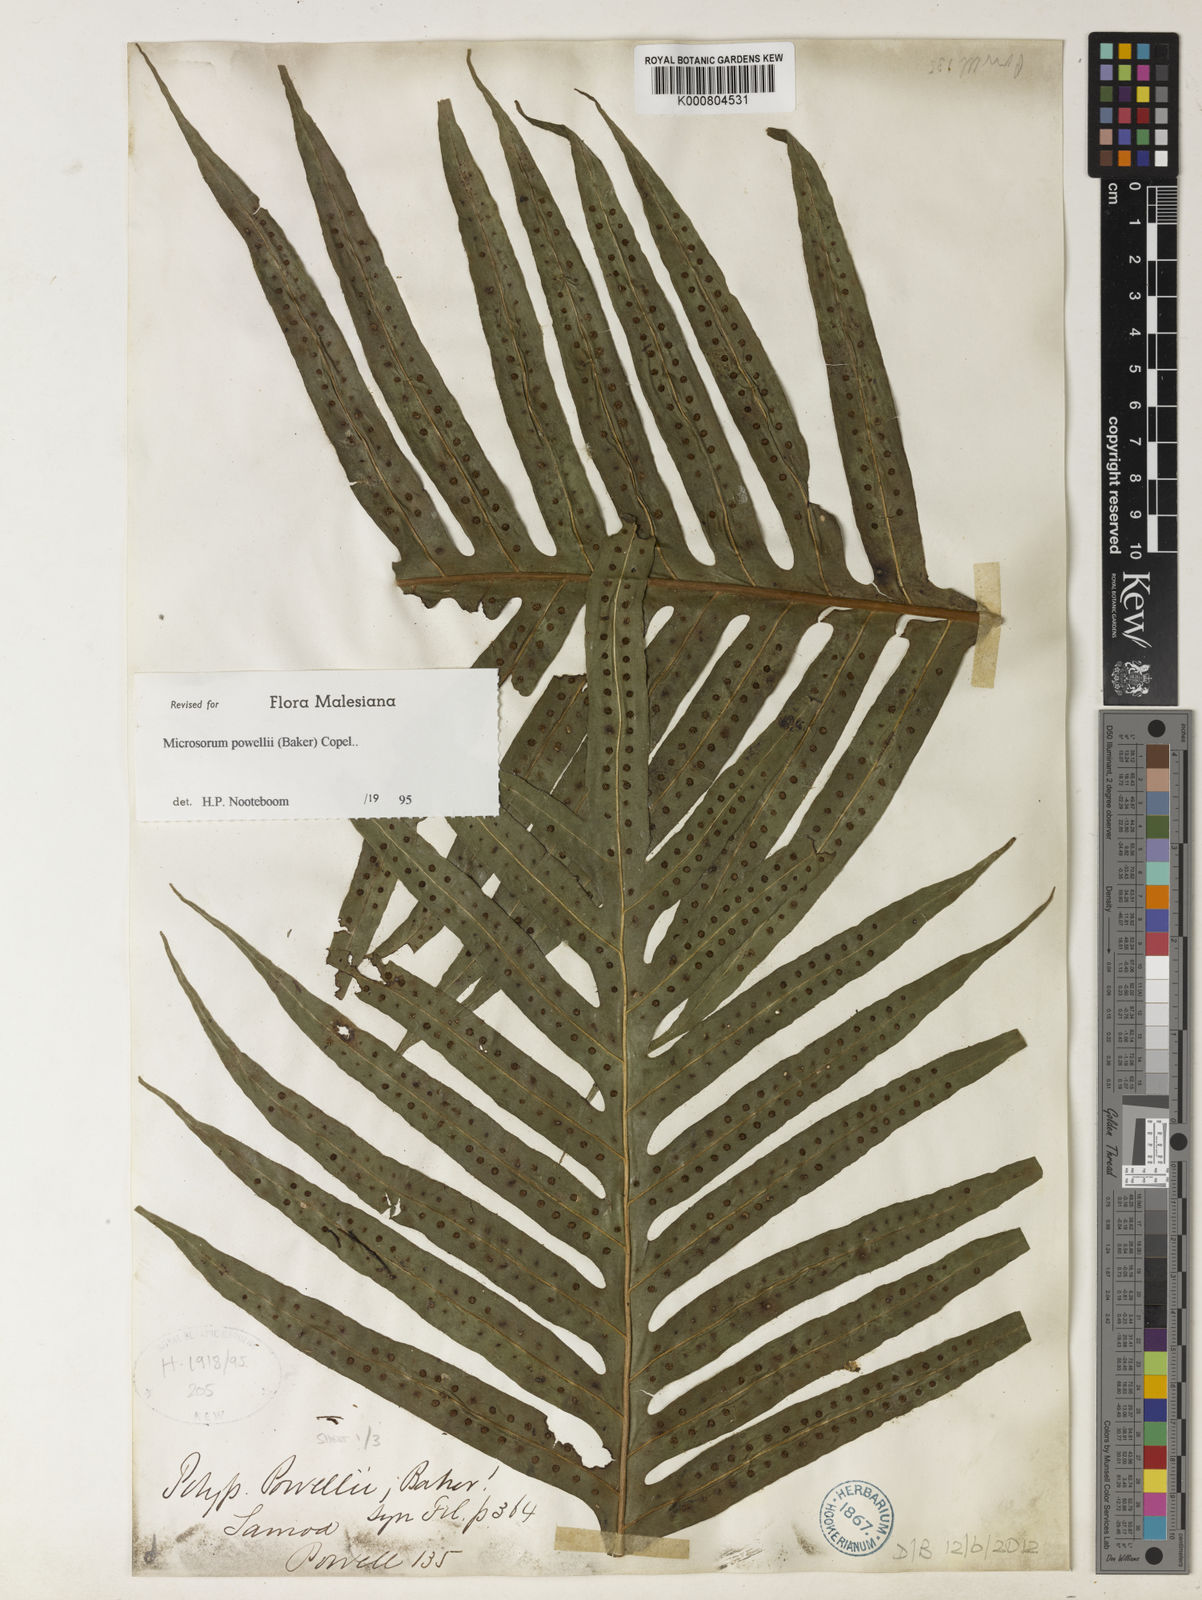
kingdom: Plantae
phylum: Tracheophyta
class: Polypodiopsida
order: Polypodiales
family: Polypodiaceae
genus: Microsorum
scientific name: Microsorum powellii
